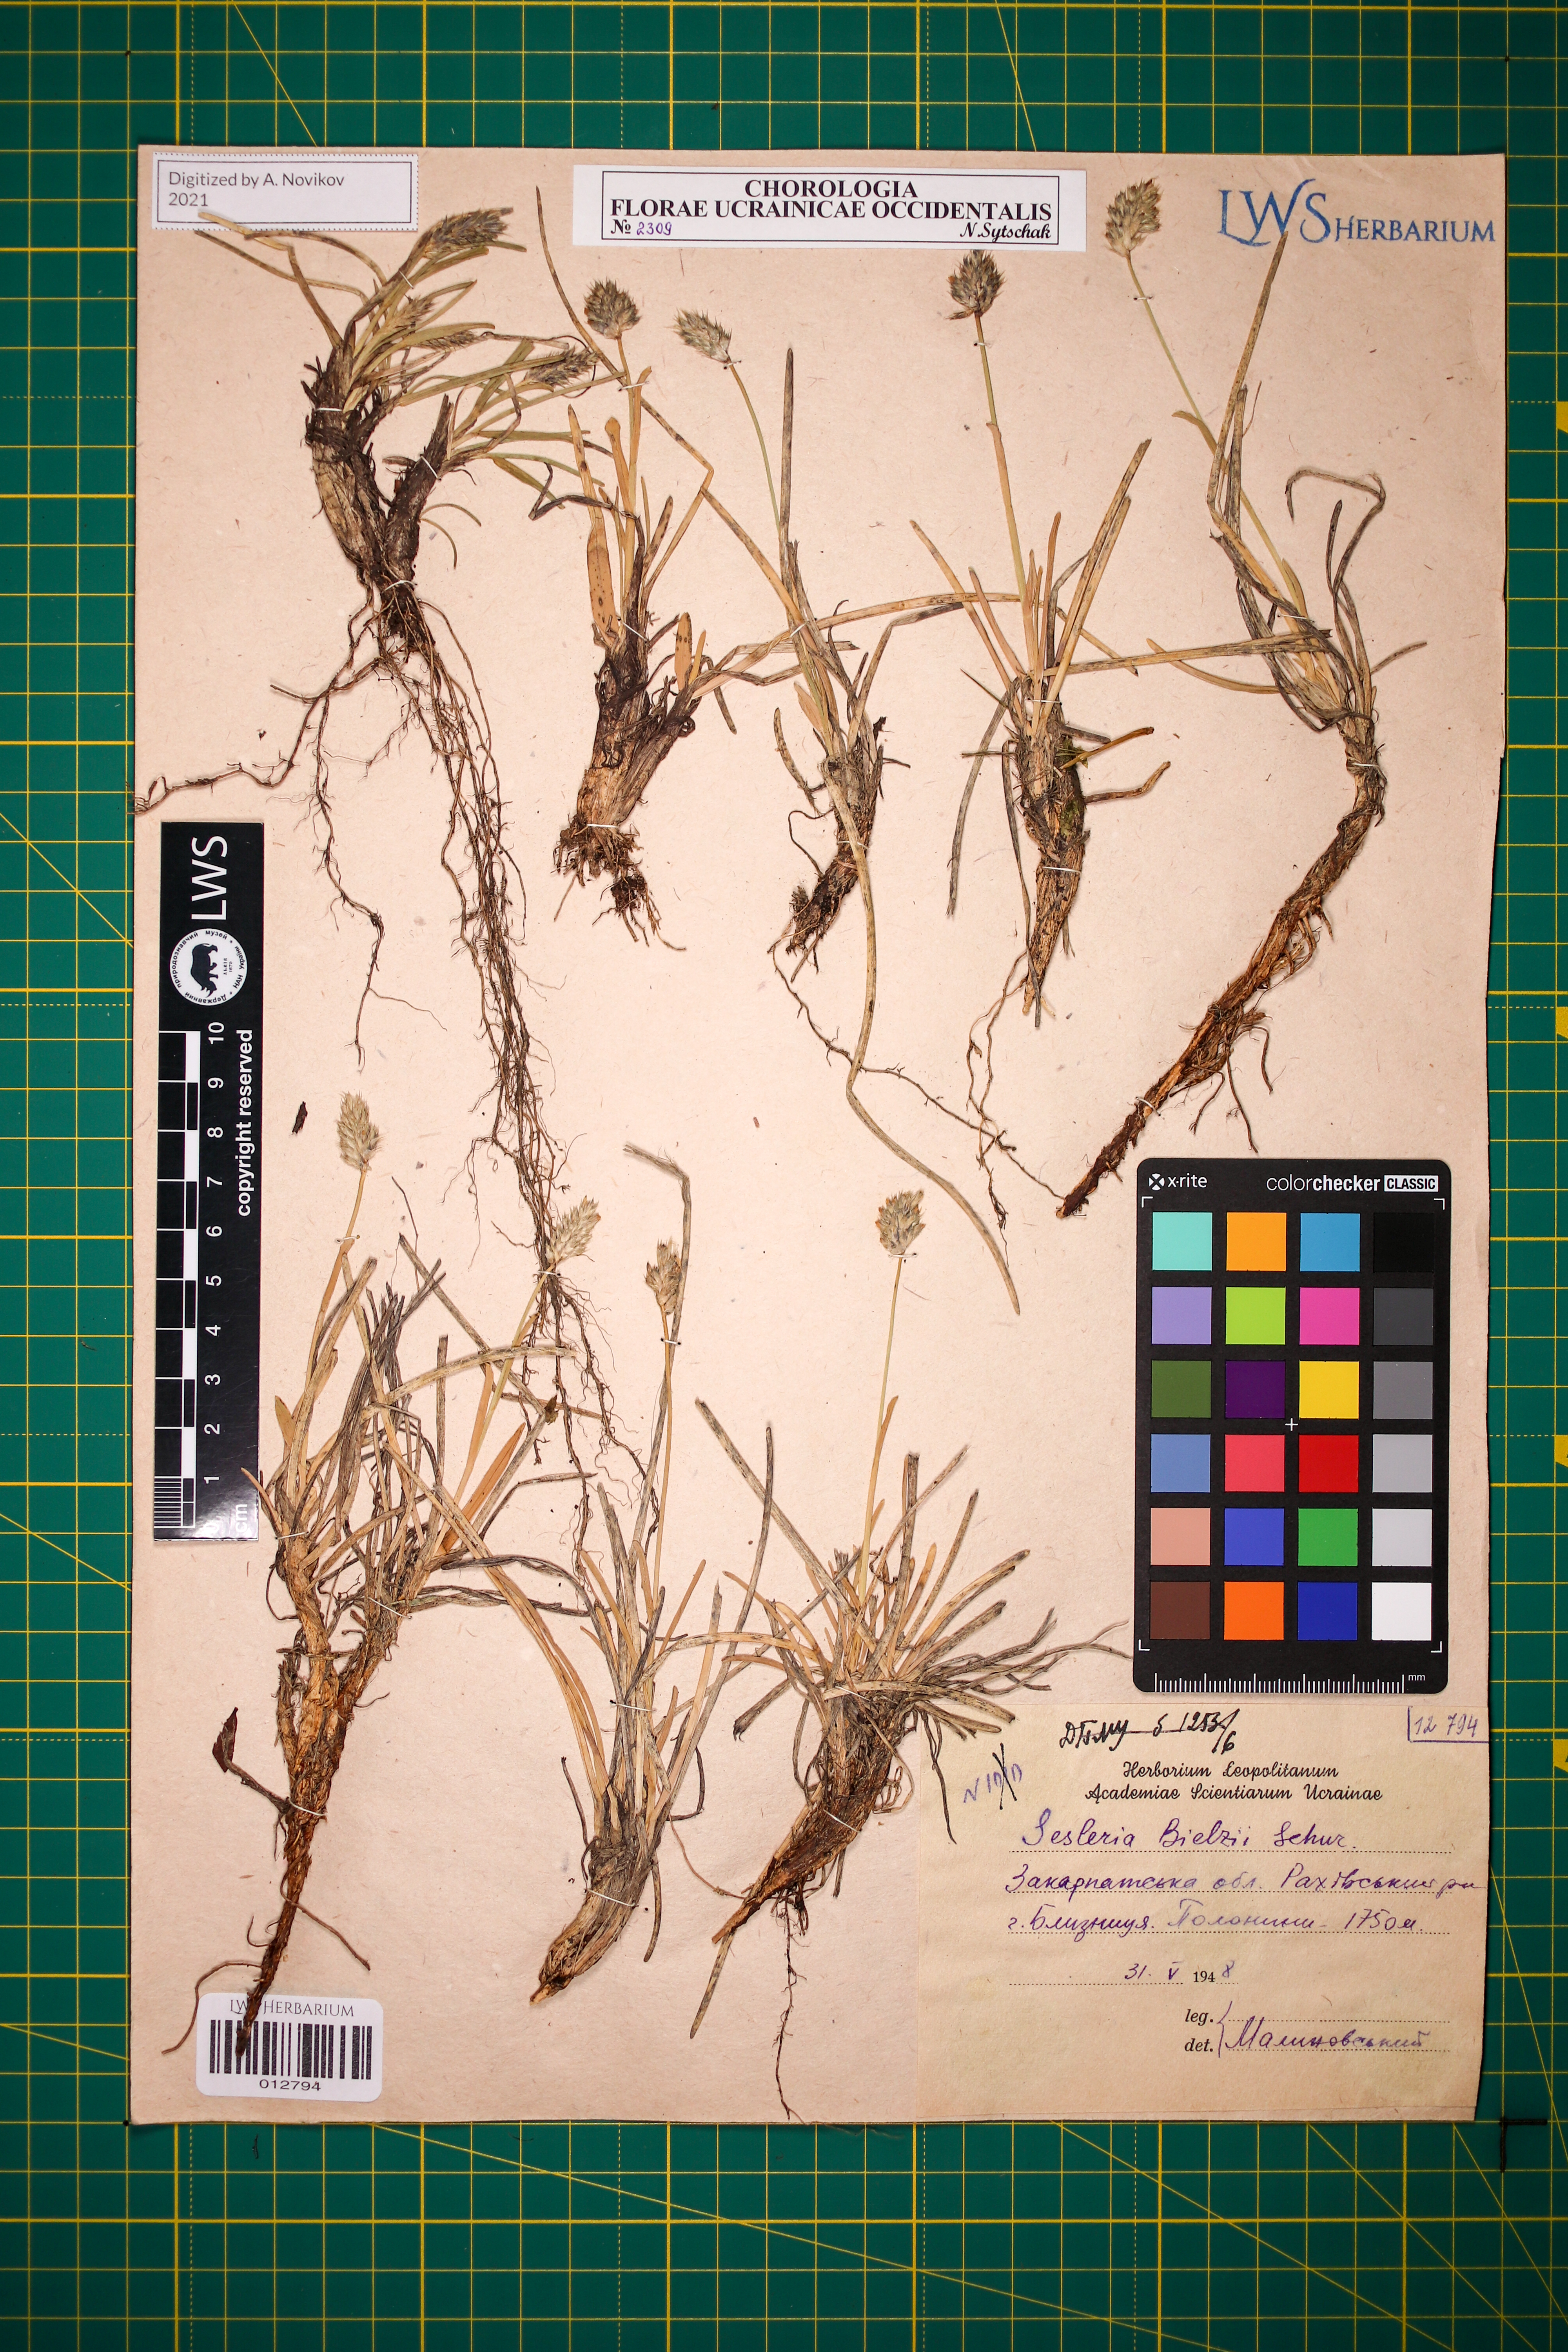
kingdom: Plantae
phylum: Tracheophyta
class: Liliopsida
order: Poales
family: Poaceae
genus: Sesleria
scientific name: Sesleria bielzii
